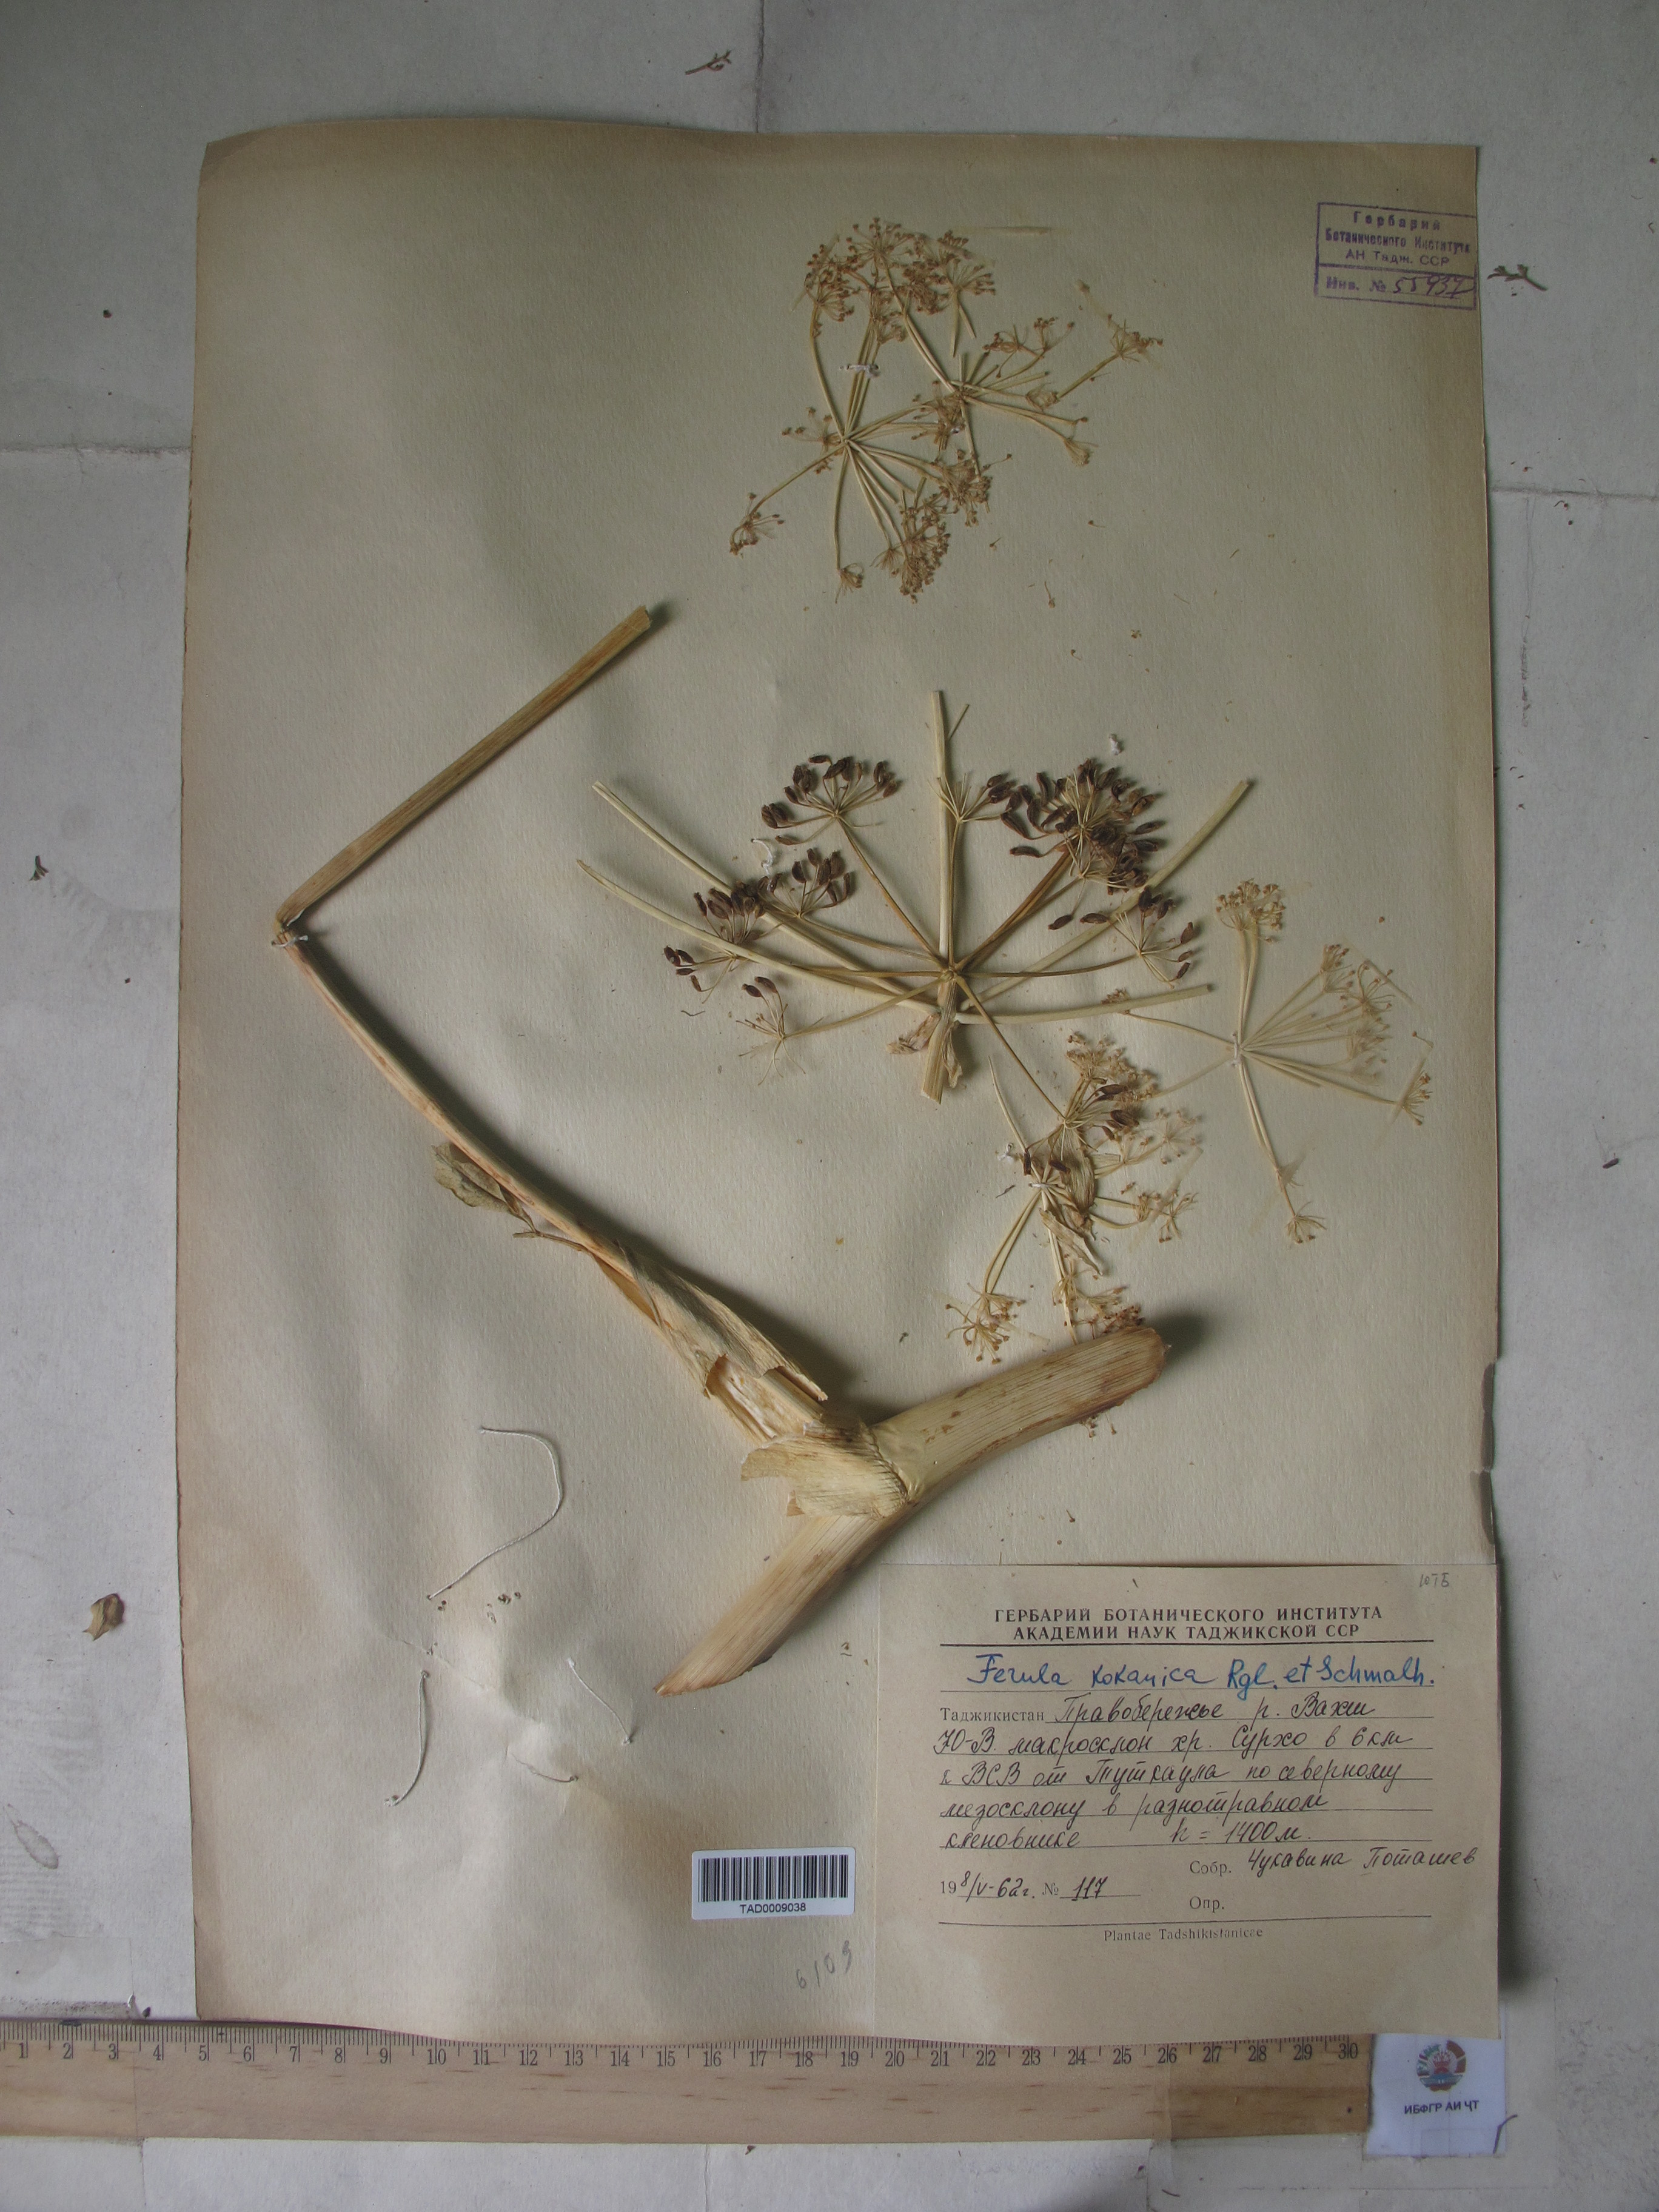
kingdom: Plantae
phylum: Tracheophyta
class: Magnoliopsida
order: Apiales
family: Apiaceae
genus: Ferula
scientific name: Ferula kokanica
